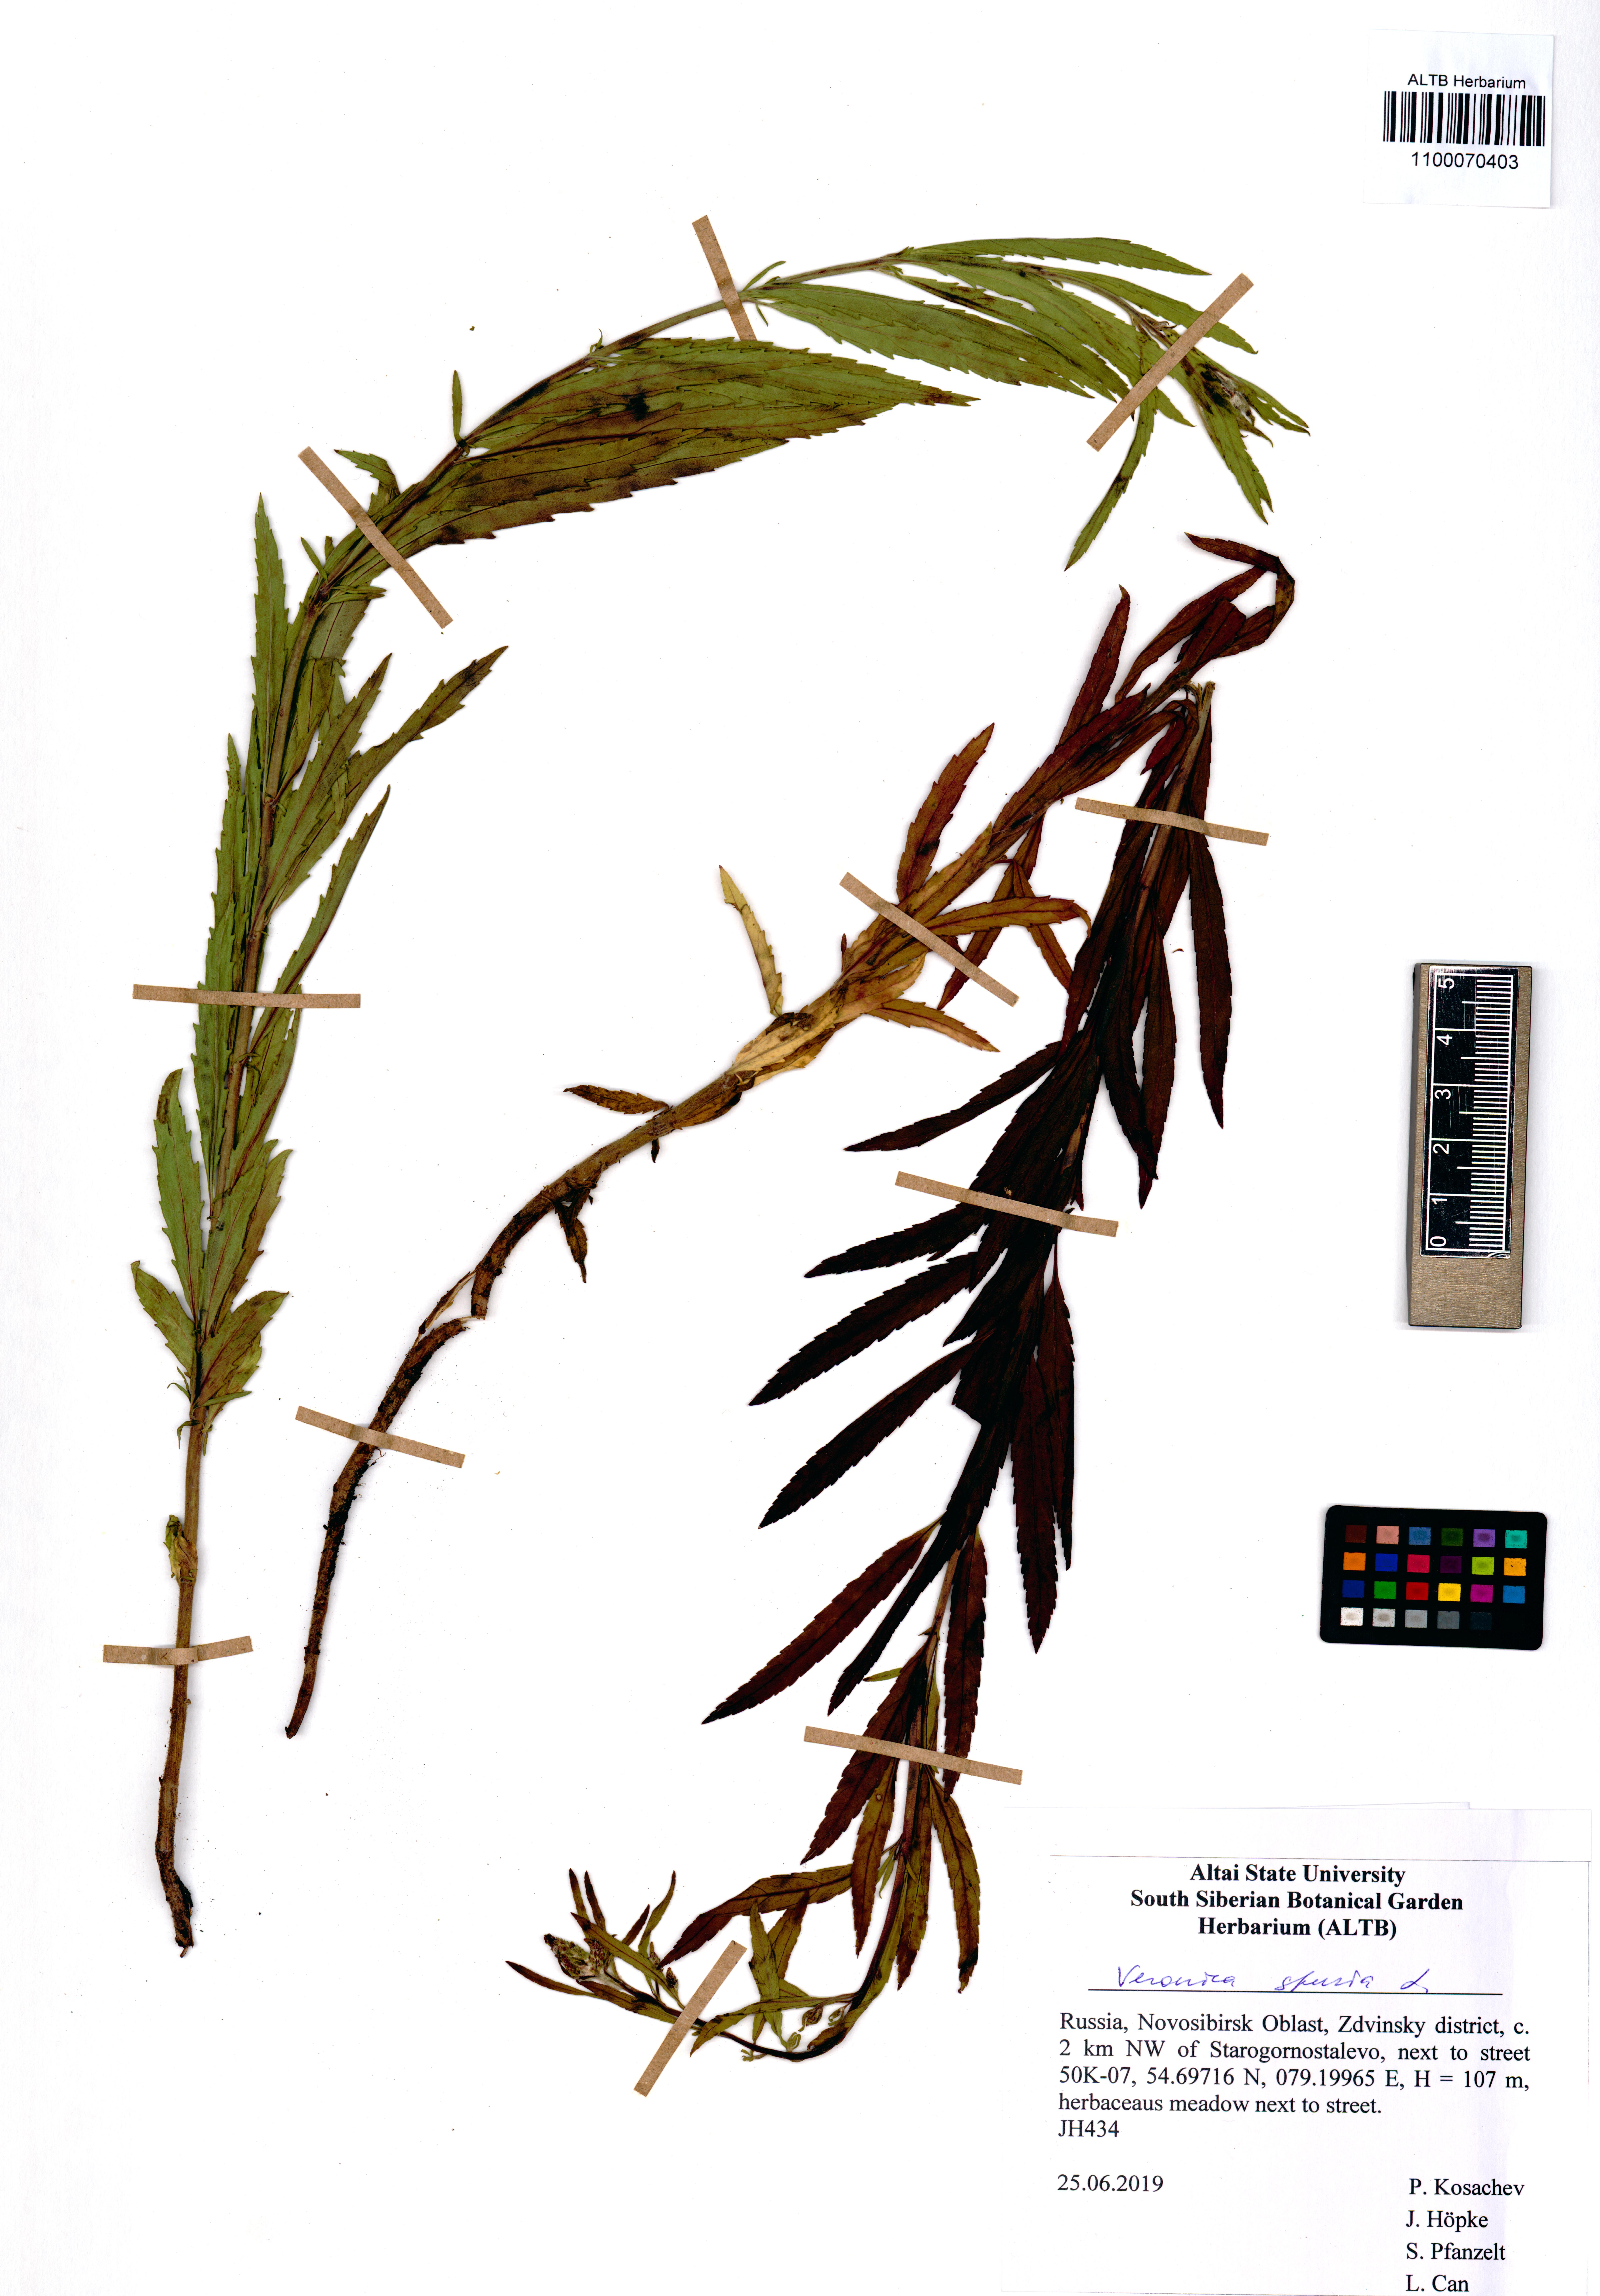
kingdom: Plantae
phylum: Tracheophyta
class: Magnoliopsida
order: Lamiales
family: Plantaginaceae
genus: Veronica
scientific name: Veronica spuria
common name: Bastard speedwell
